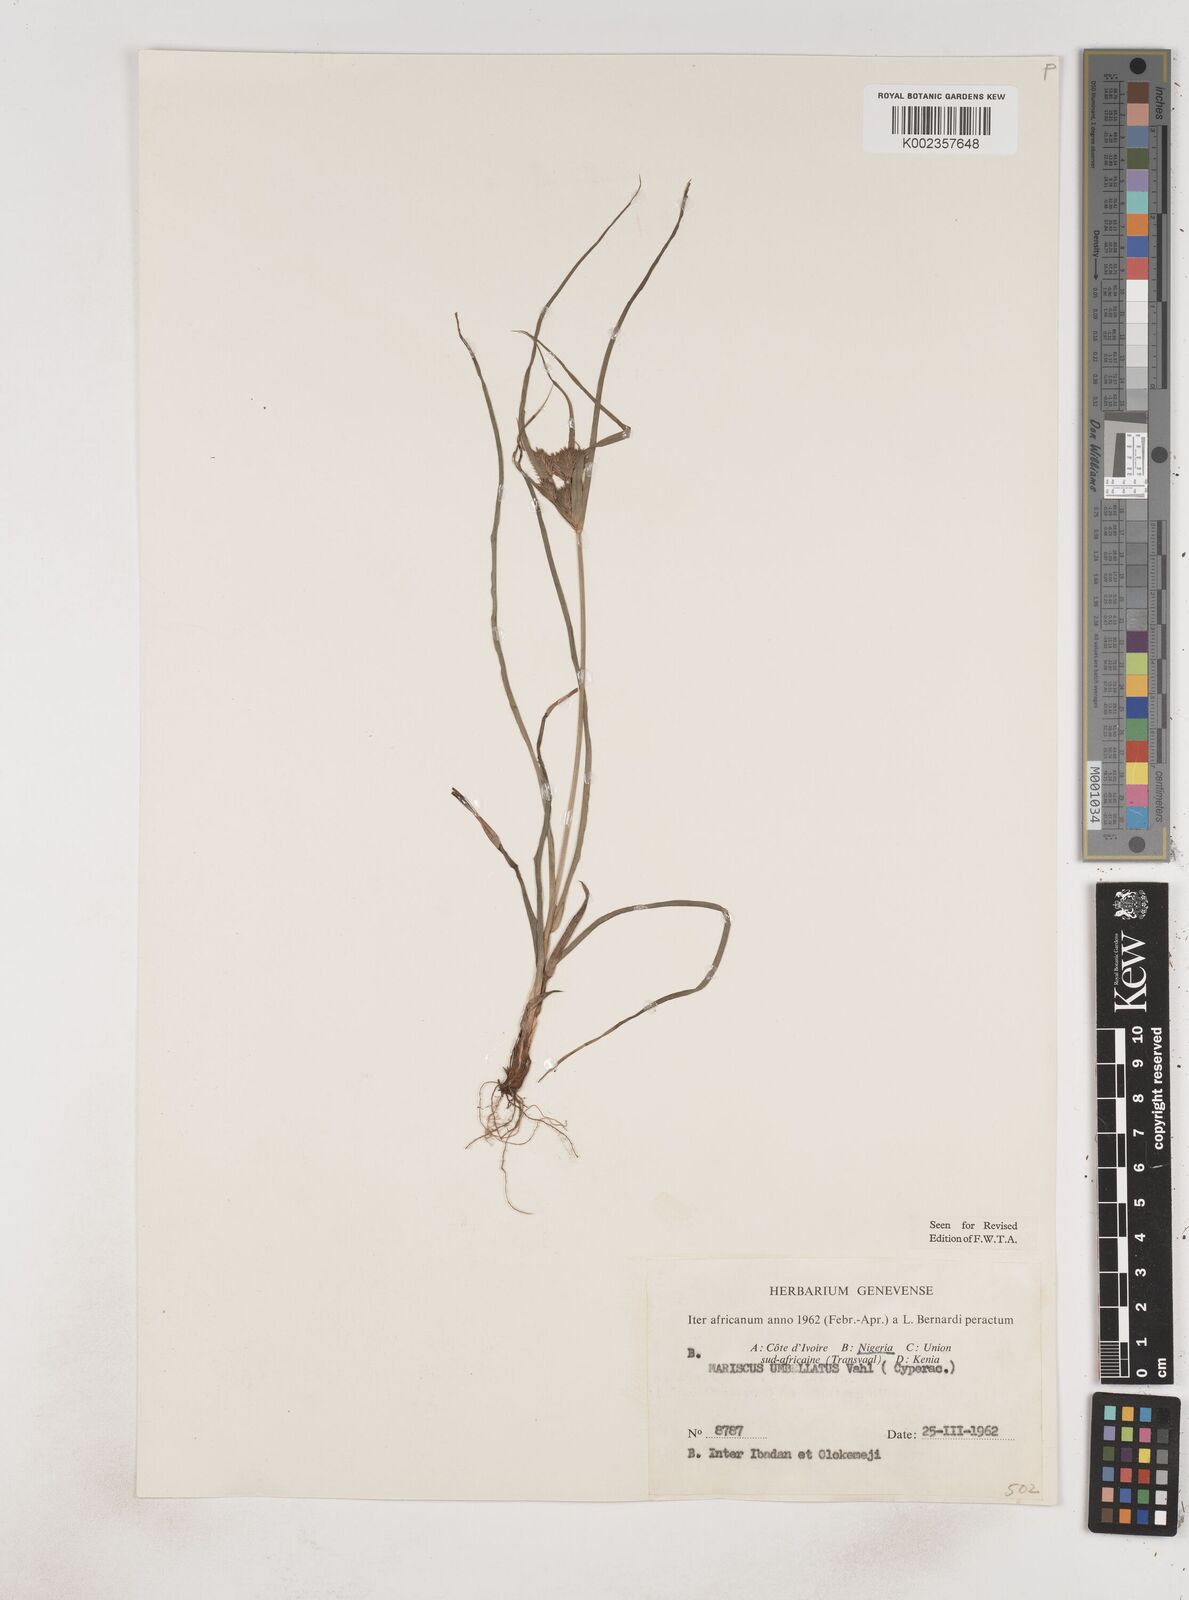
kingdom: Plantae
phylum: Tracheophyta
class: Liliopsida
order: Poales
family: Cyperaceae
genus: Cyperus
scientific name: Cyperus cyperoides
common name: Pacific island flat sedge
